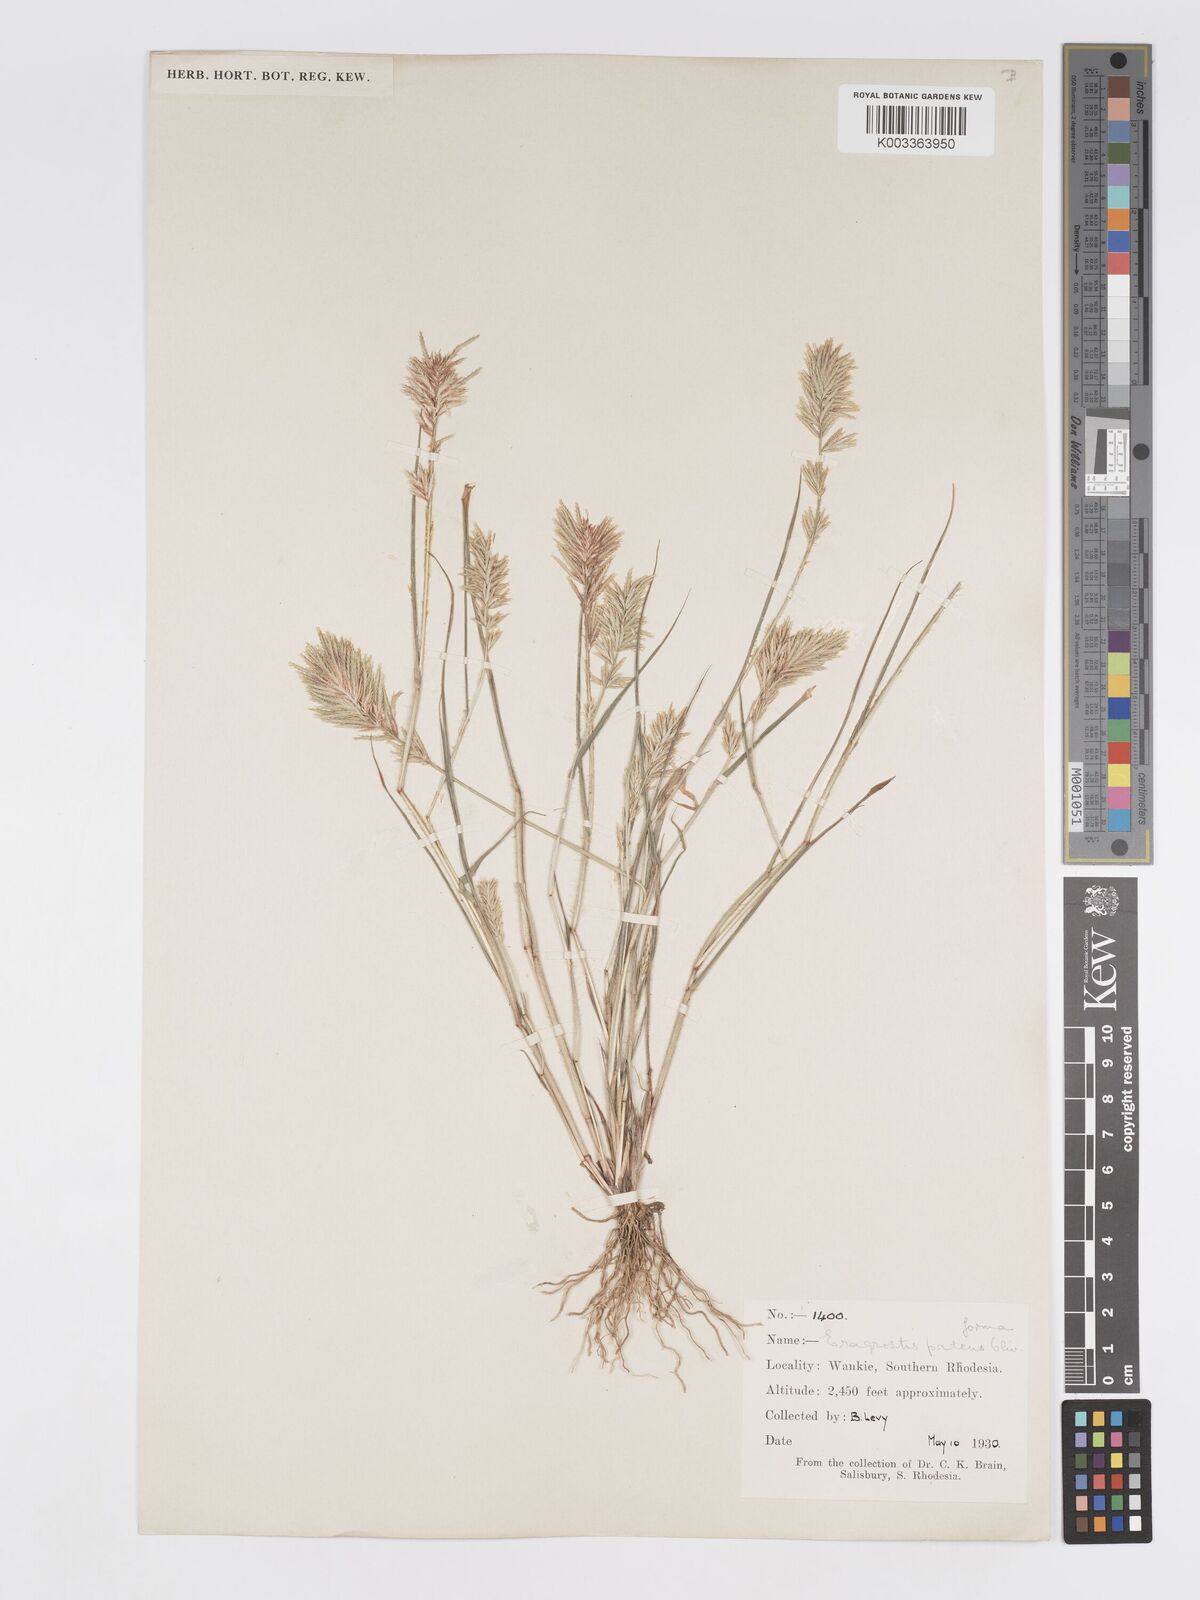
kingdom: Plantae
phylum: Tracheophyta
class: Liliopsida
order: Poales
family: Poaceae
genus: Eragrostis
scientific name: Eragrostis patens
